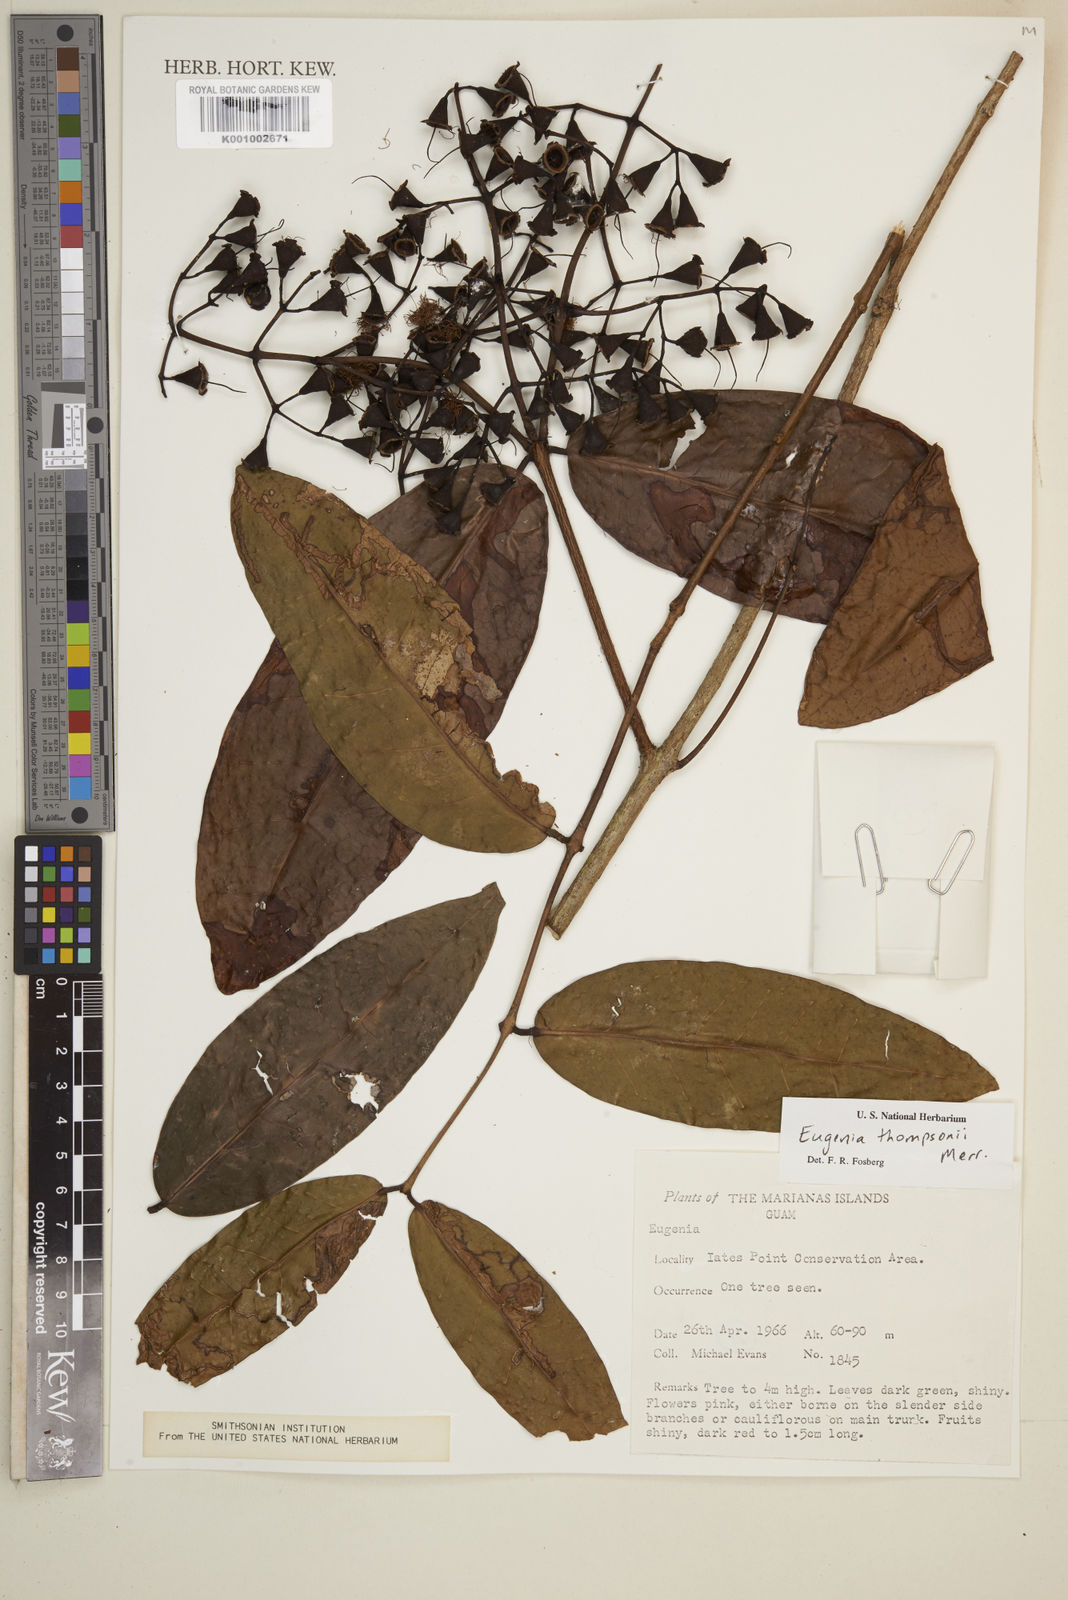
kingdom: Plantae
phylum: Tracheophyta
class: Magnoliopsida
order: Myrtales
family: Myrtaceae
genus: Syzygium
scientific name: Syzygium thompsonii
